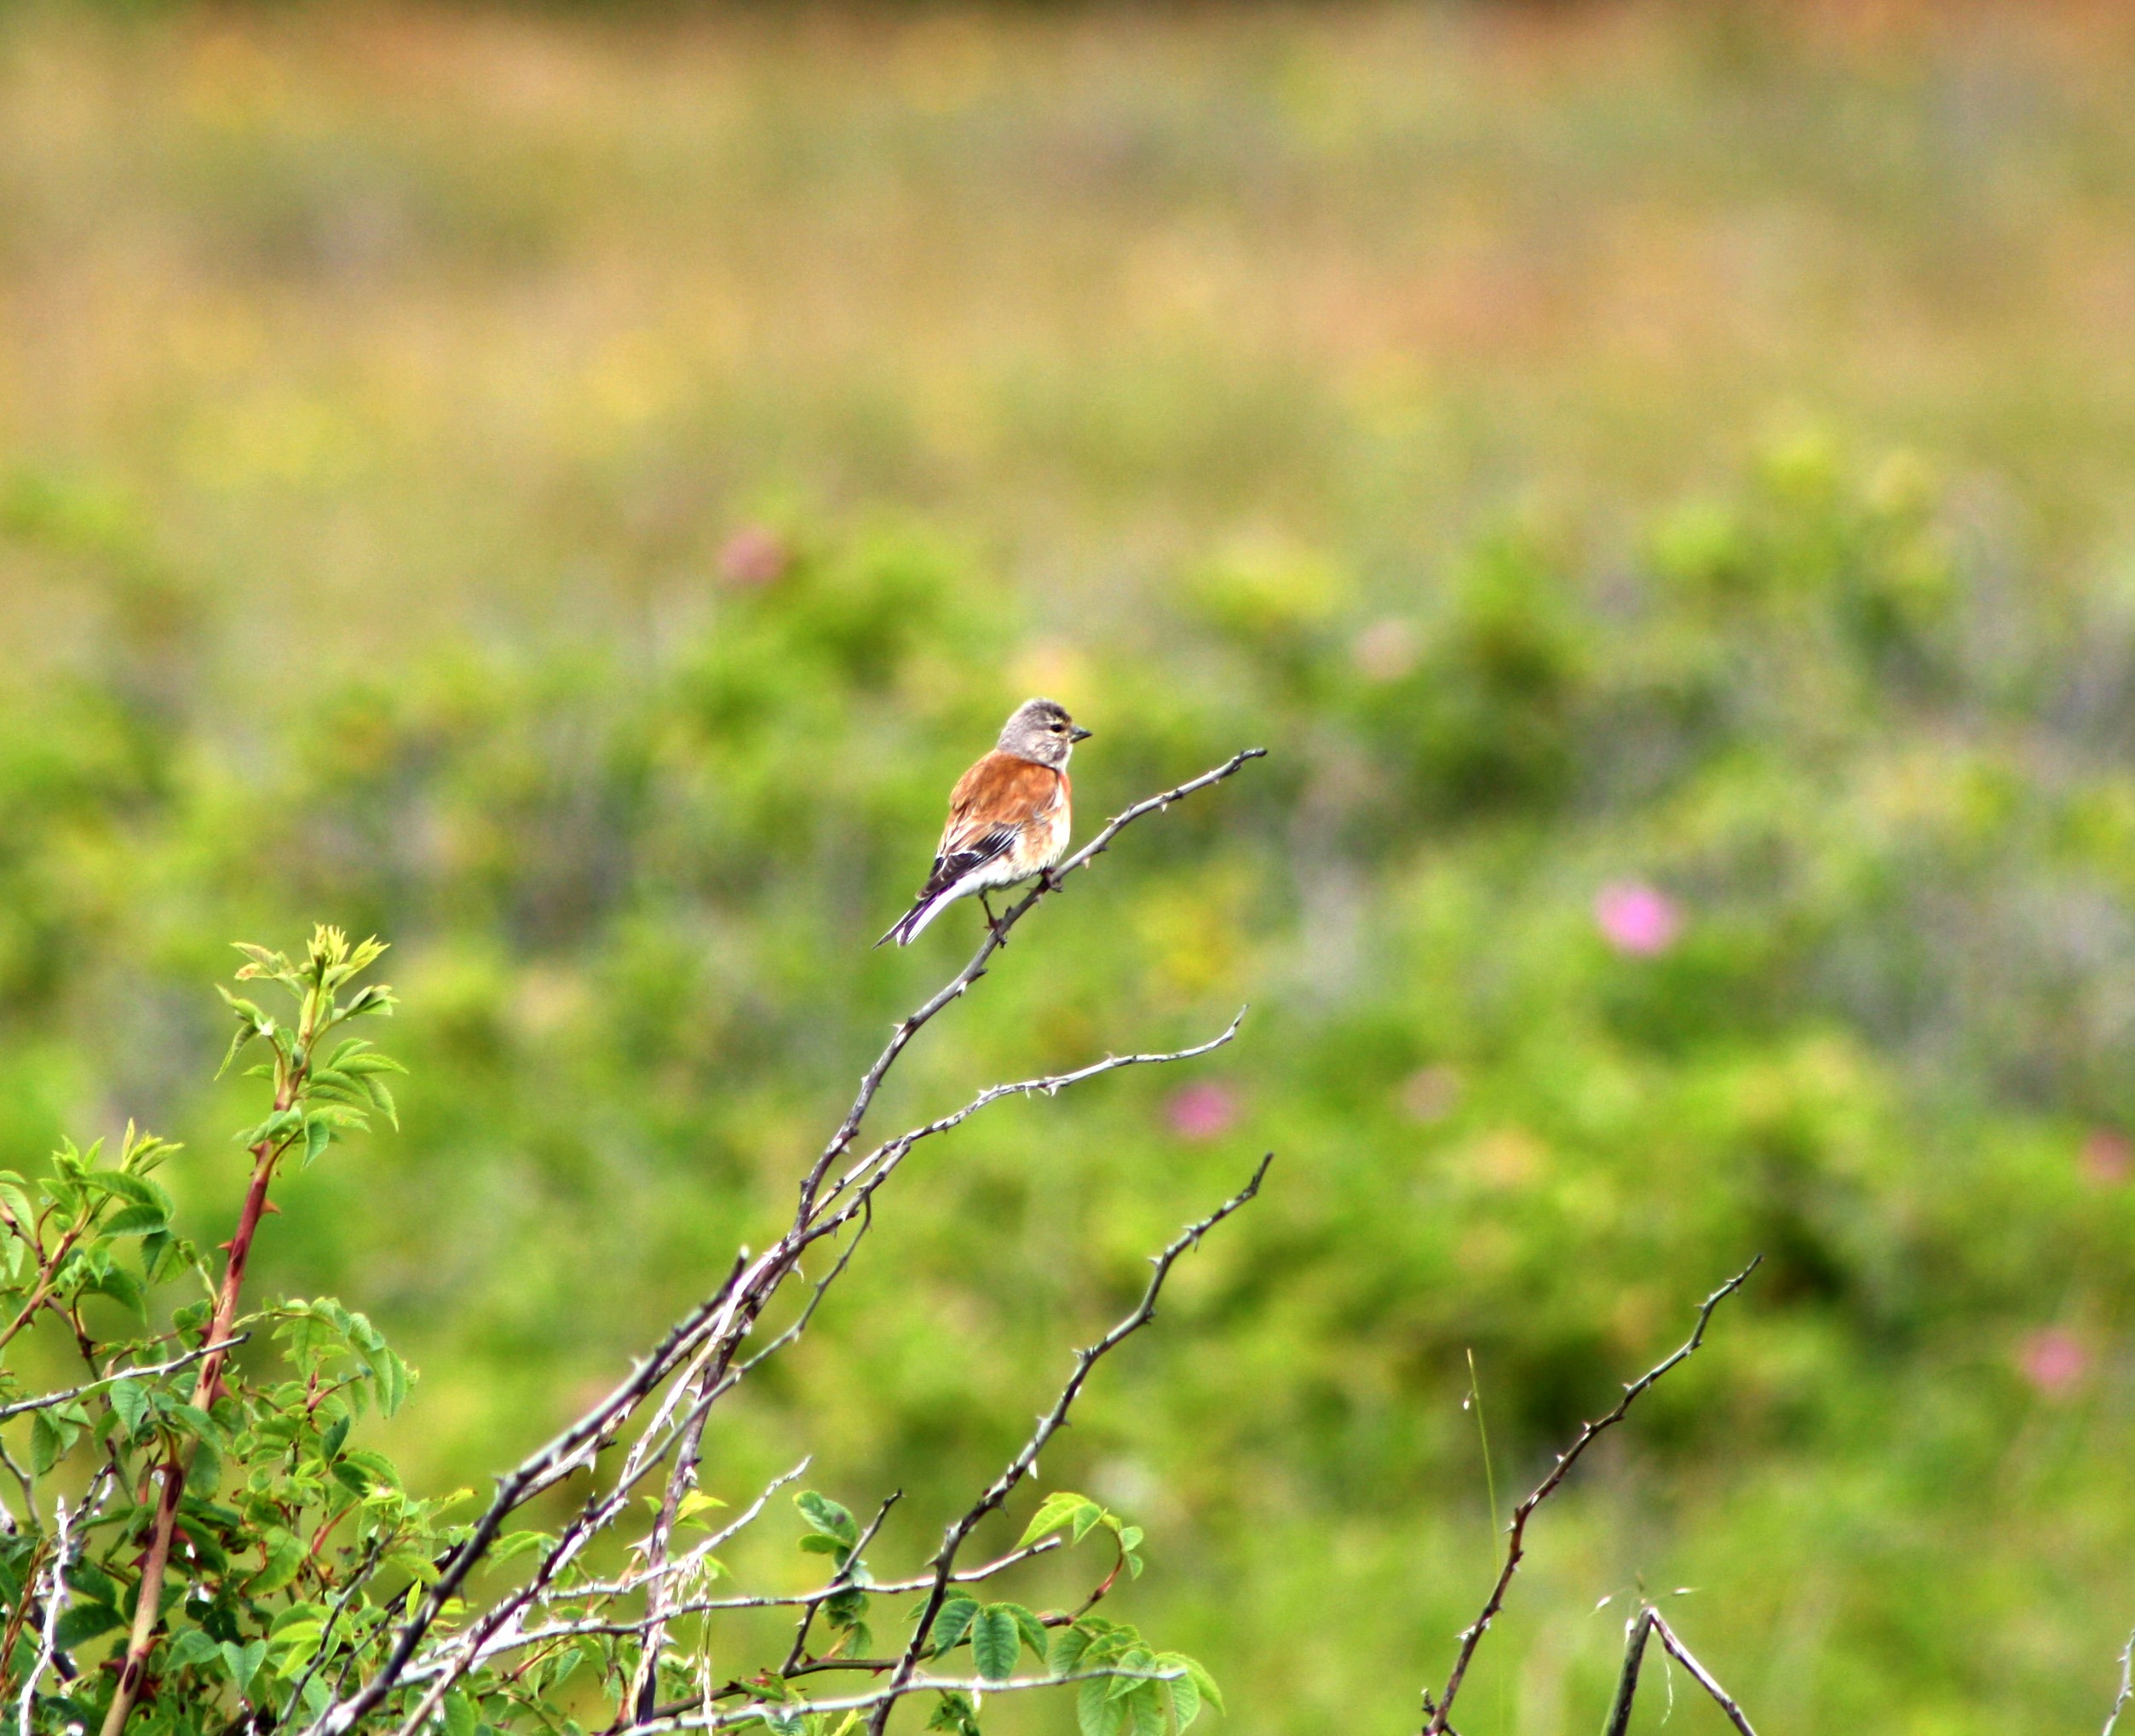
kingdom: Animalia
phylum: Chordata
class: Aves
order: Passeriformes
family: Fringillidae
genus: Linaria
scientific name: Linaria cannabina
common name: Tornirisk
